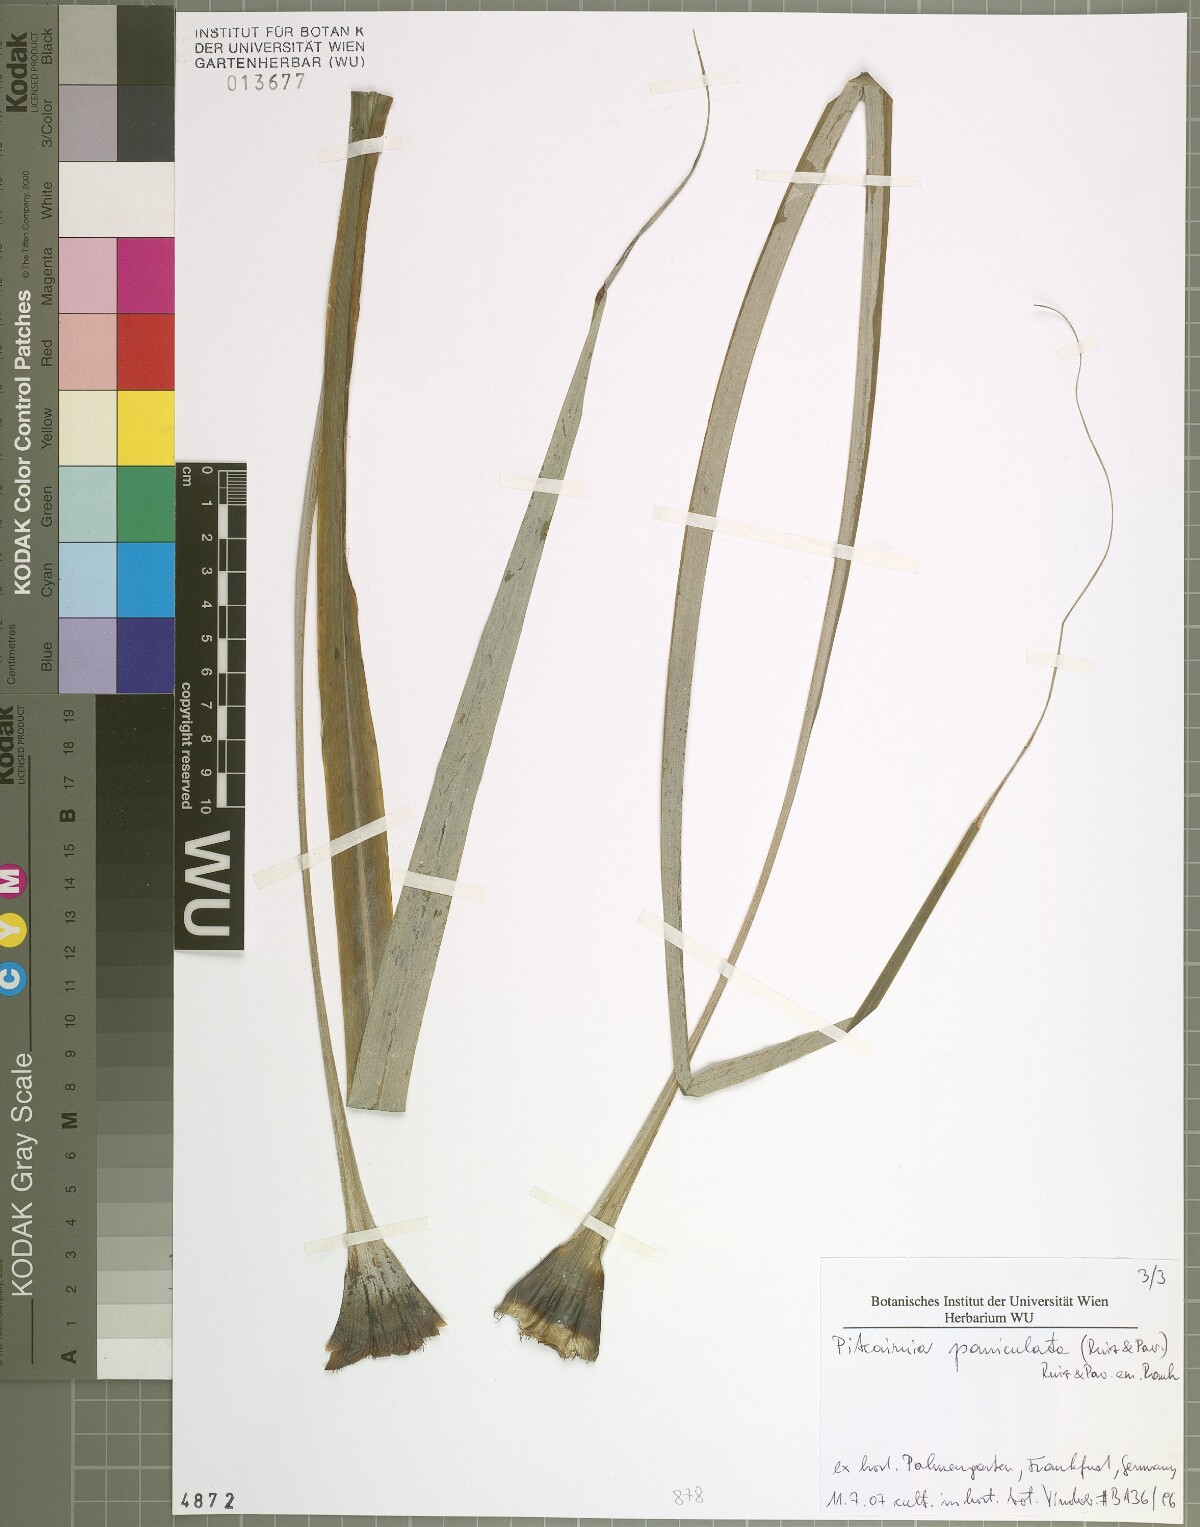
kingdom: Plantae
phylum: Tracheophyta
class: Liliopsida
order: Poales
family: Bromeliaceae
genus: Pitcairnia
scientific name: Pitcairnia paniculata
